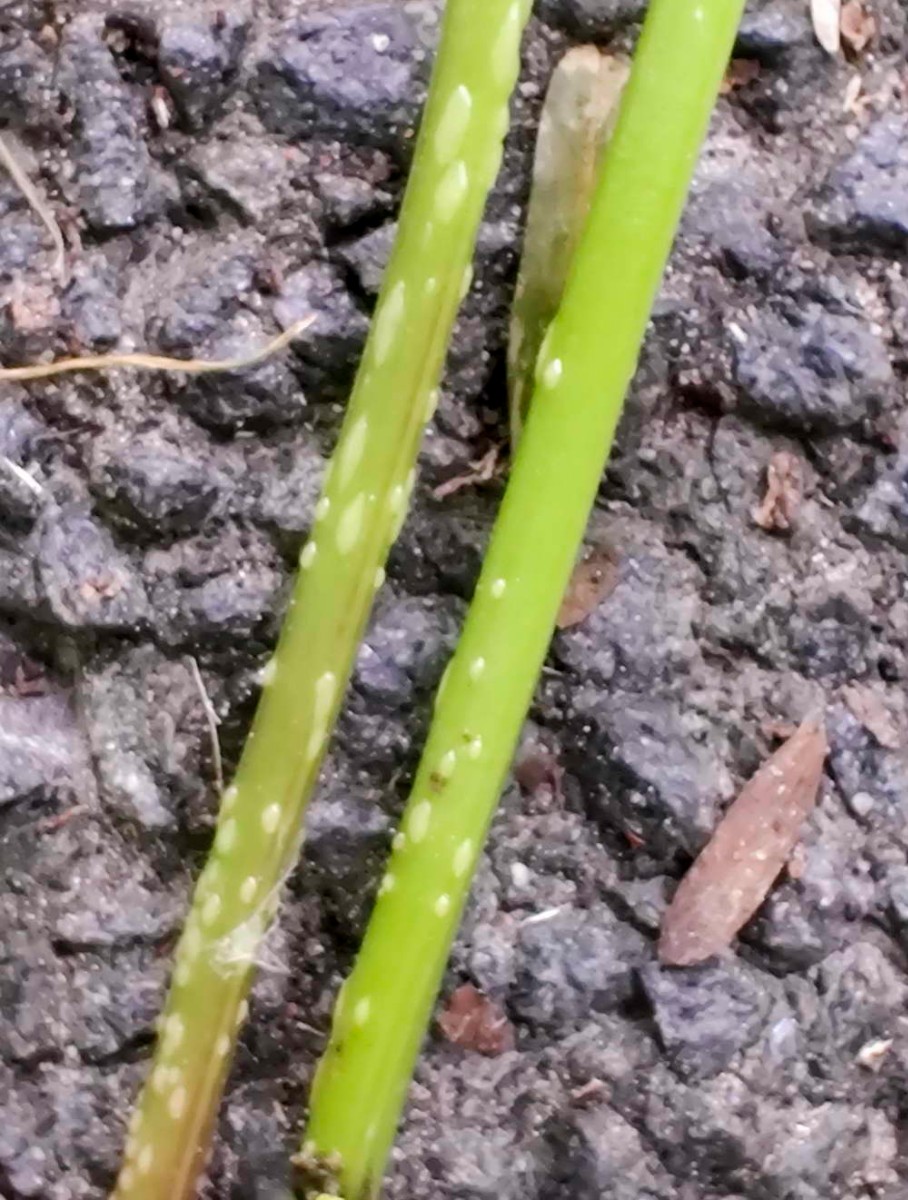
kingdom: Fungi
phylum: Ascomycota
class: Taphrinomycetes
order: Taphrinales
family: Taphrinaceae
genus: Protomyces
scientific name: Protomyces macrosporus
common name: skvalderkål-vablesæk
